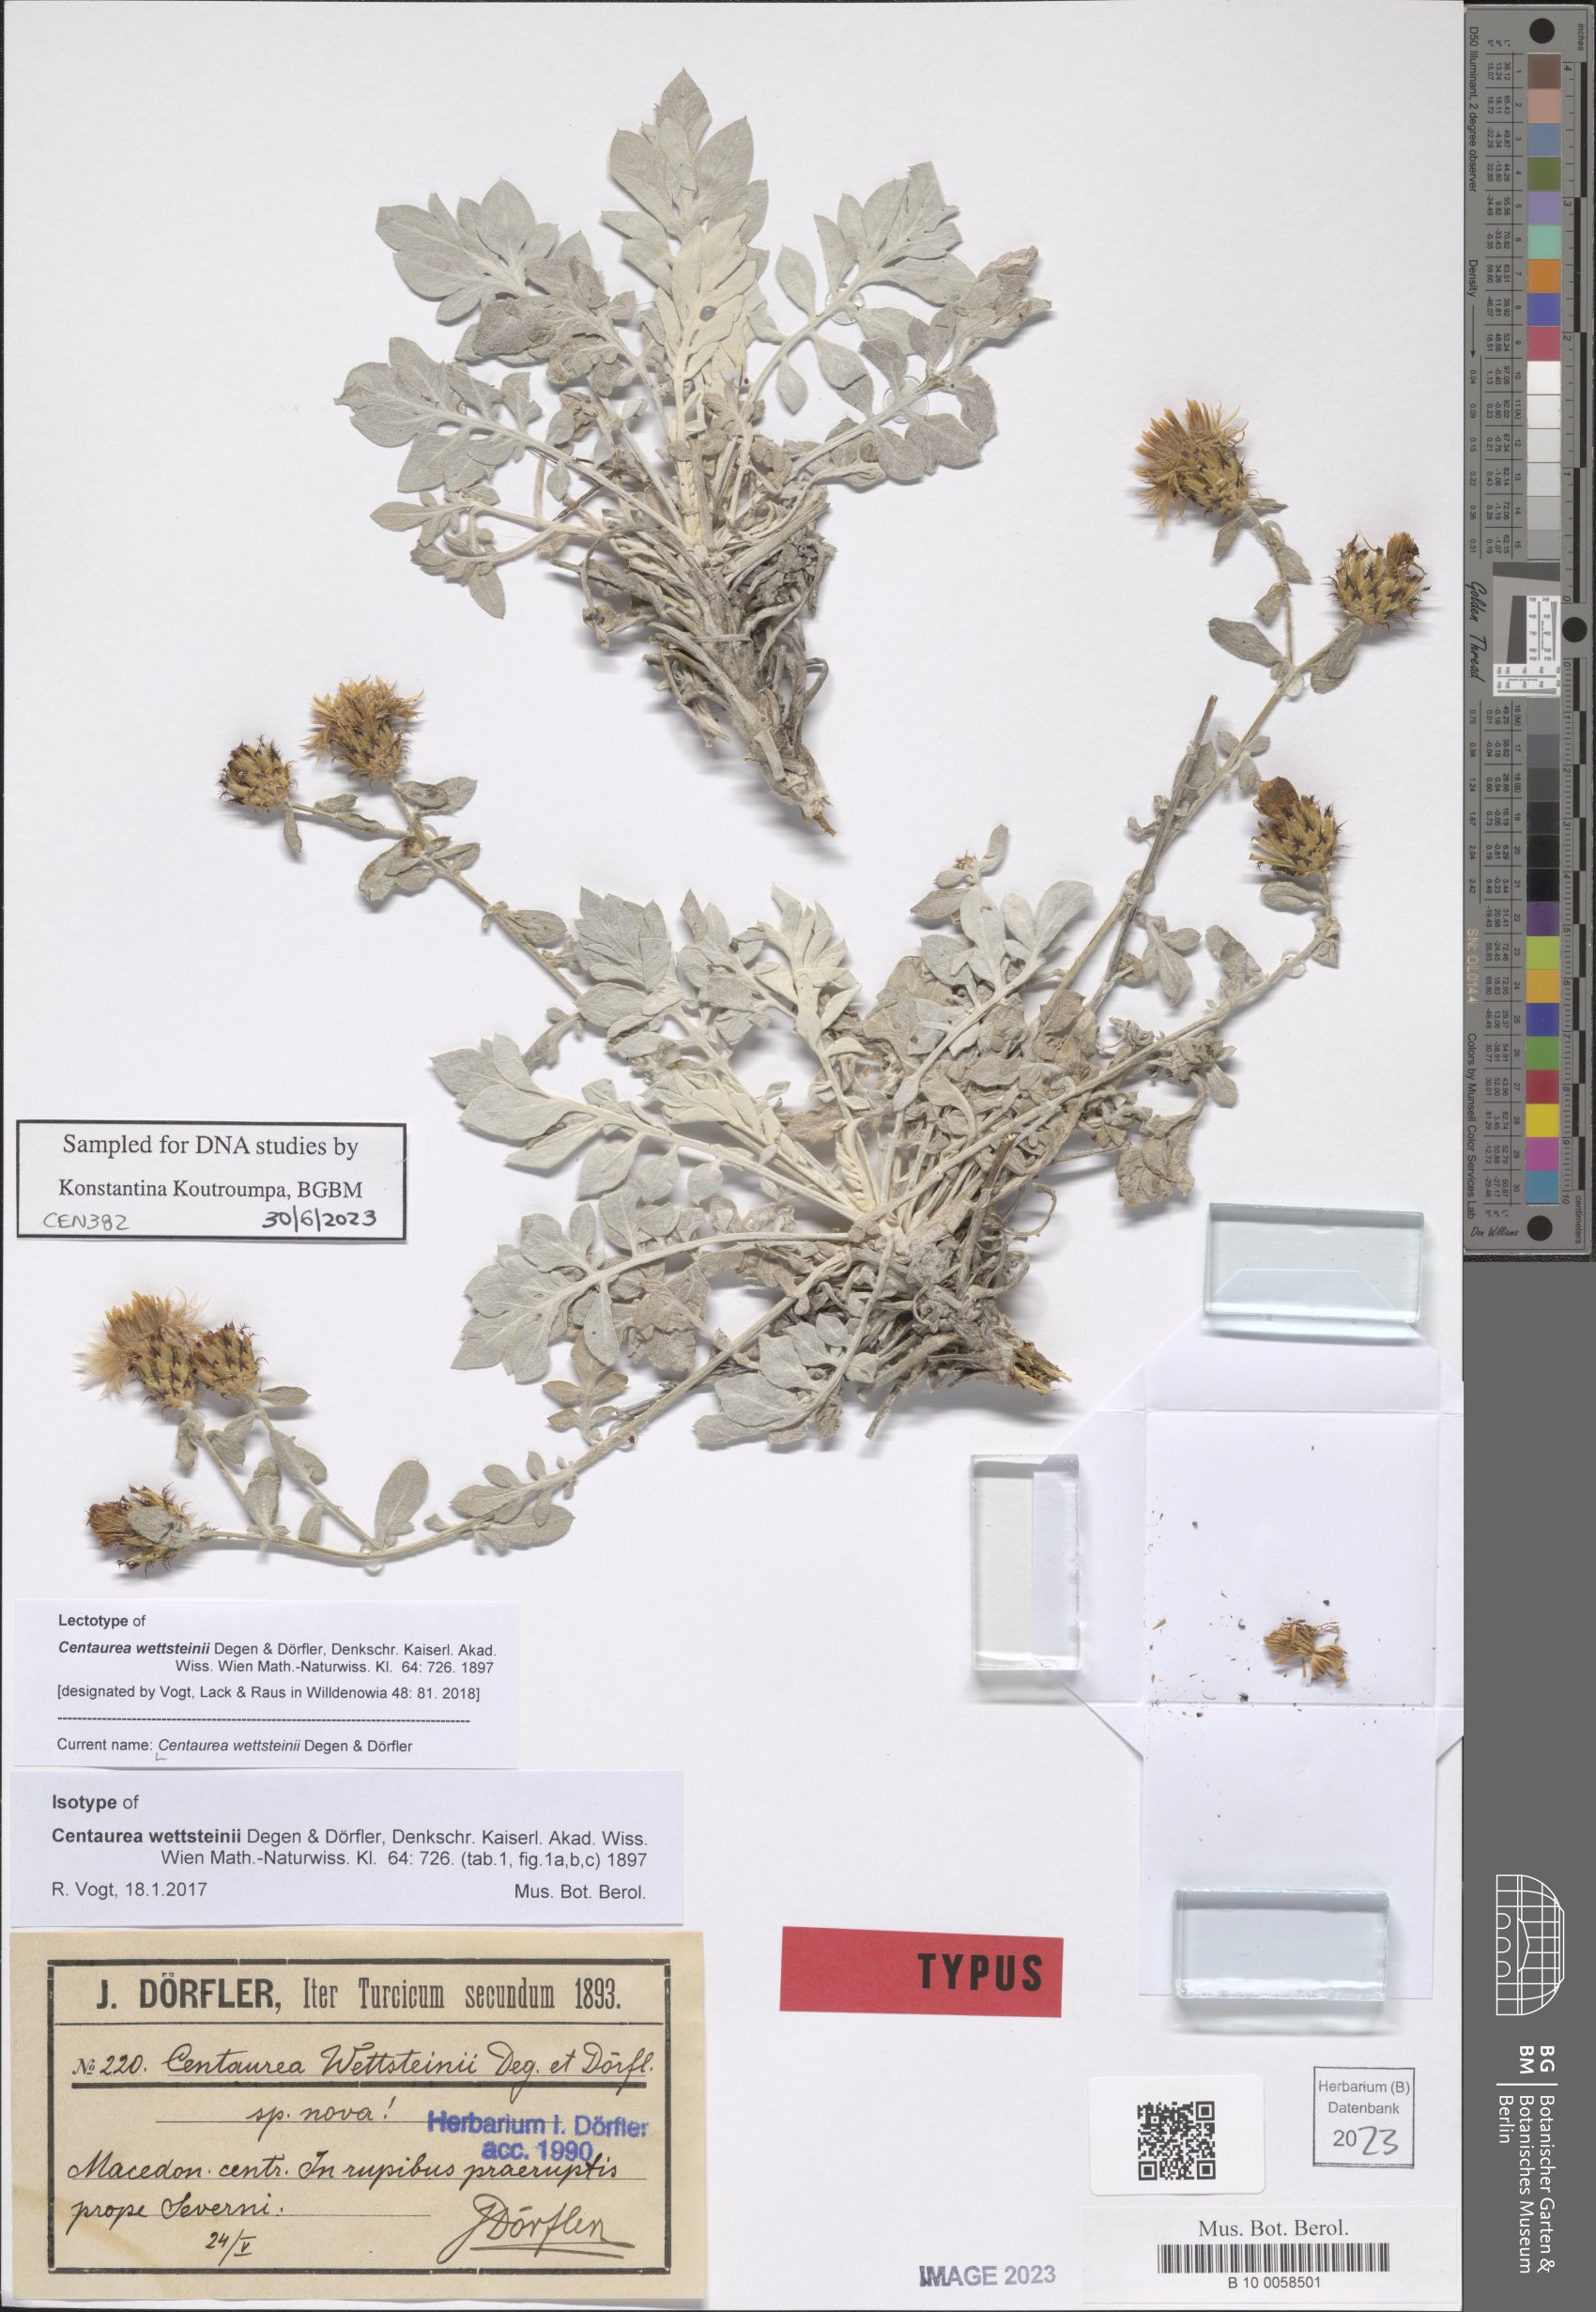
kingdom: Plantae
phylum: Tracheophyta
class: Magnoliopsida
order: Asterales
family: Asteraceae
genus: Centaurea
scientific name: Centaurea wettsteinii
